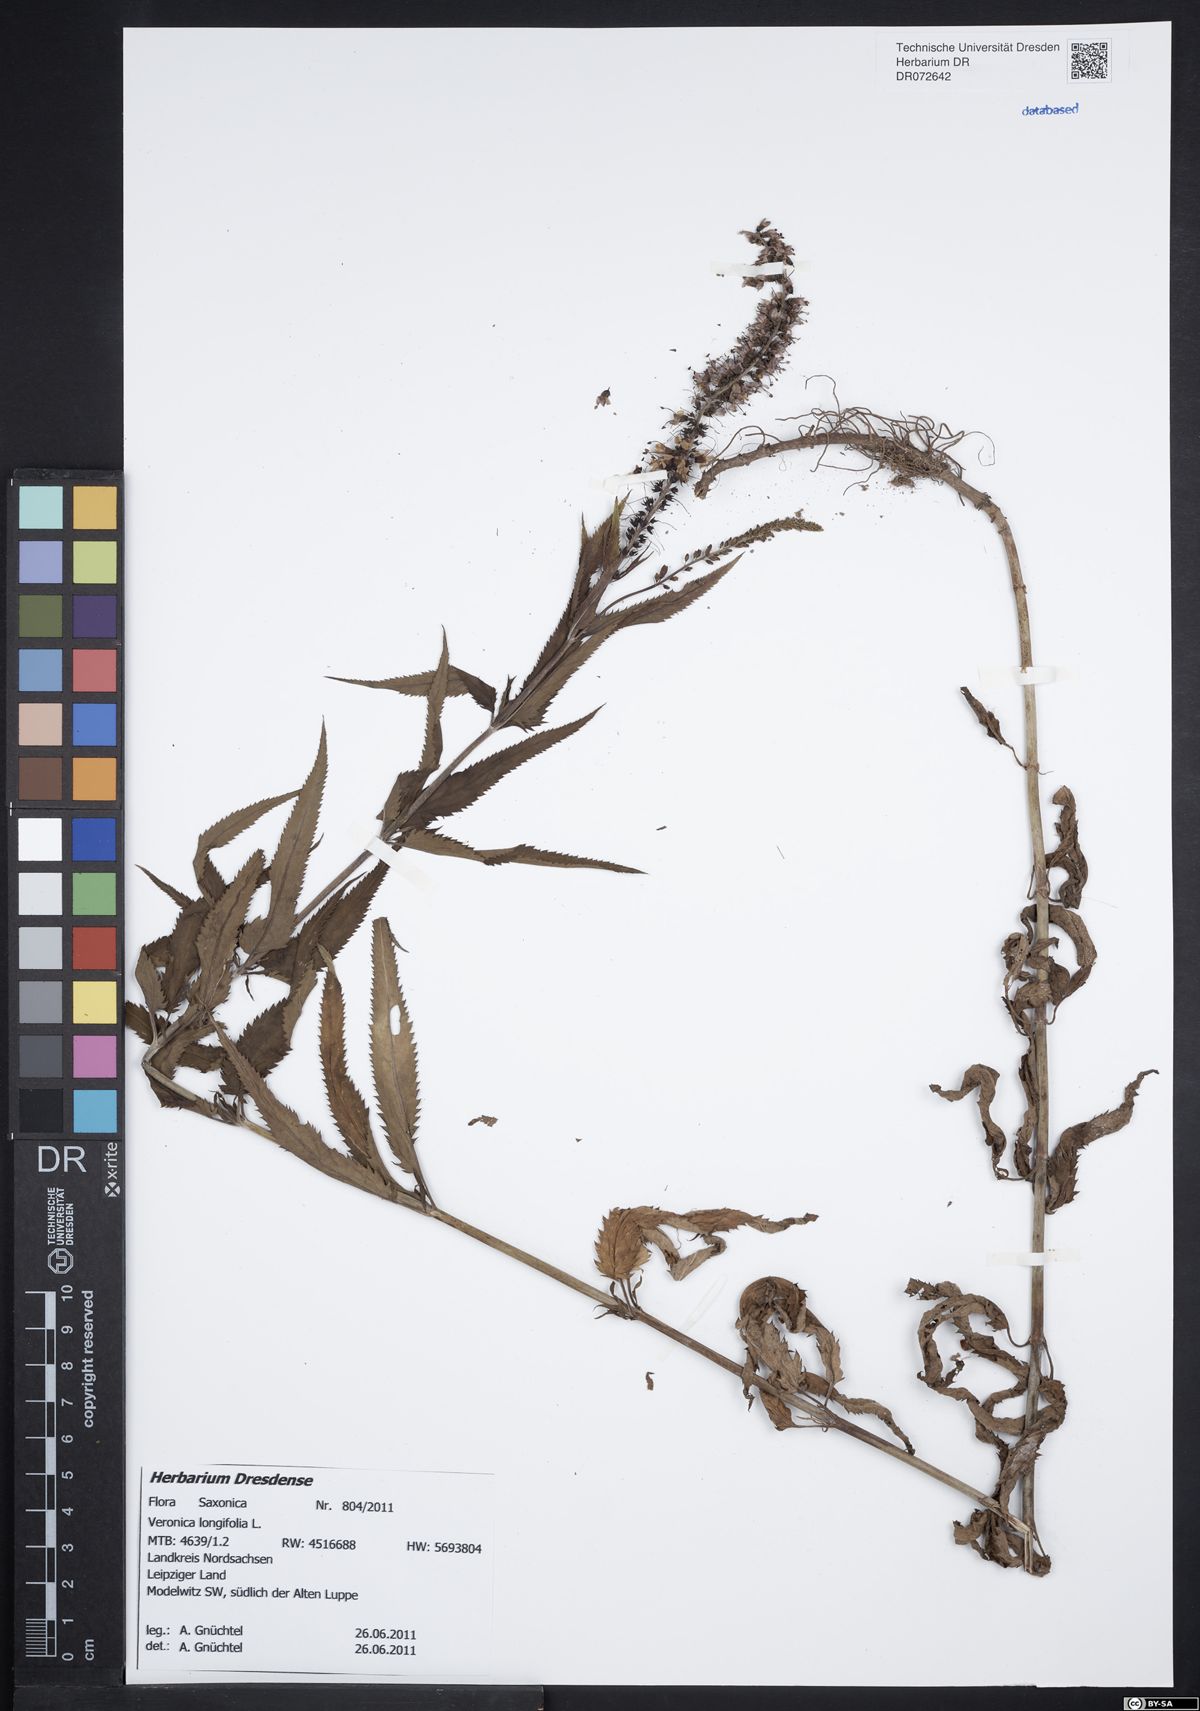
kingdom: Plantae
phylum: Tracheophyta
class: Magnoliopsida
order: Lamiales
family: Plantaginaceae
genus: Veronica
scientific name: Veronica longifolia
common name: Garden speedwell
